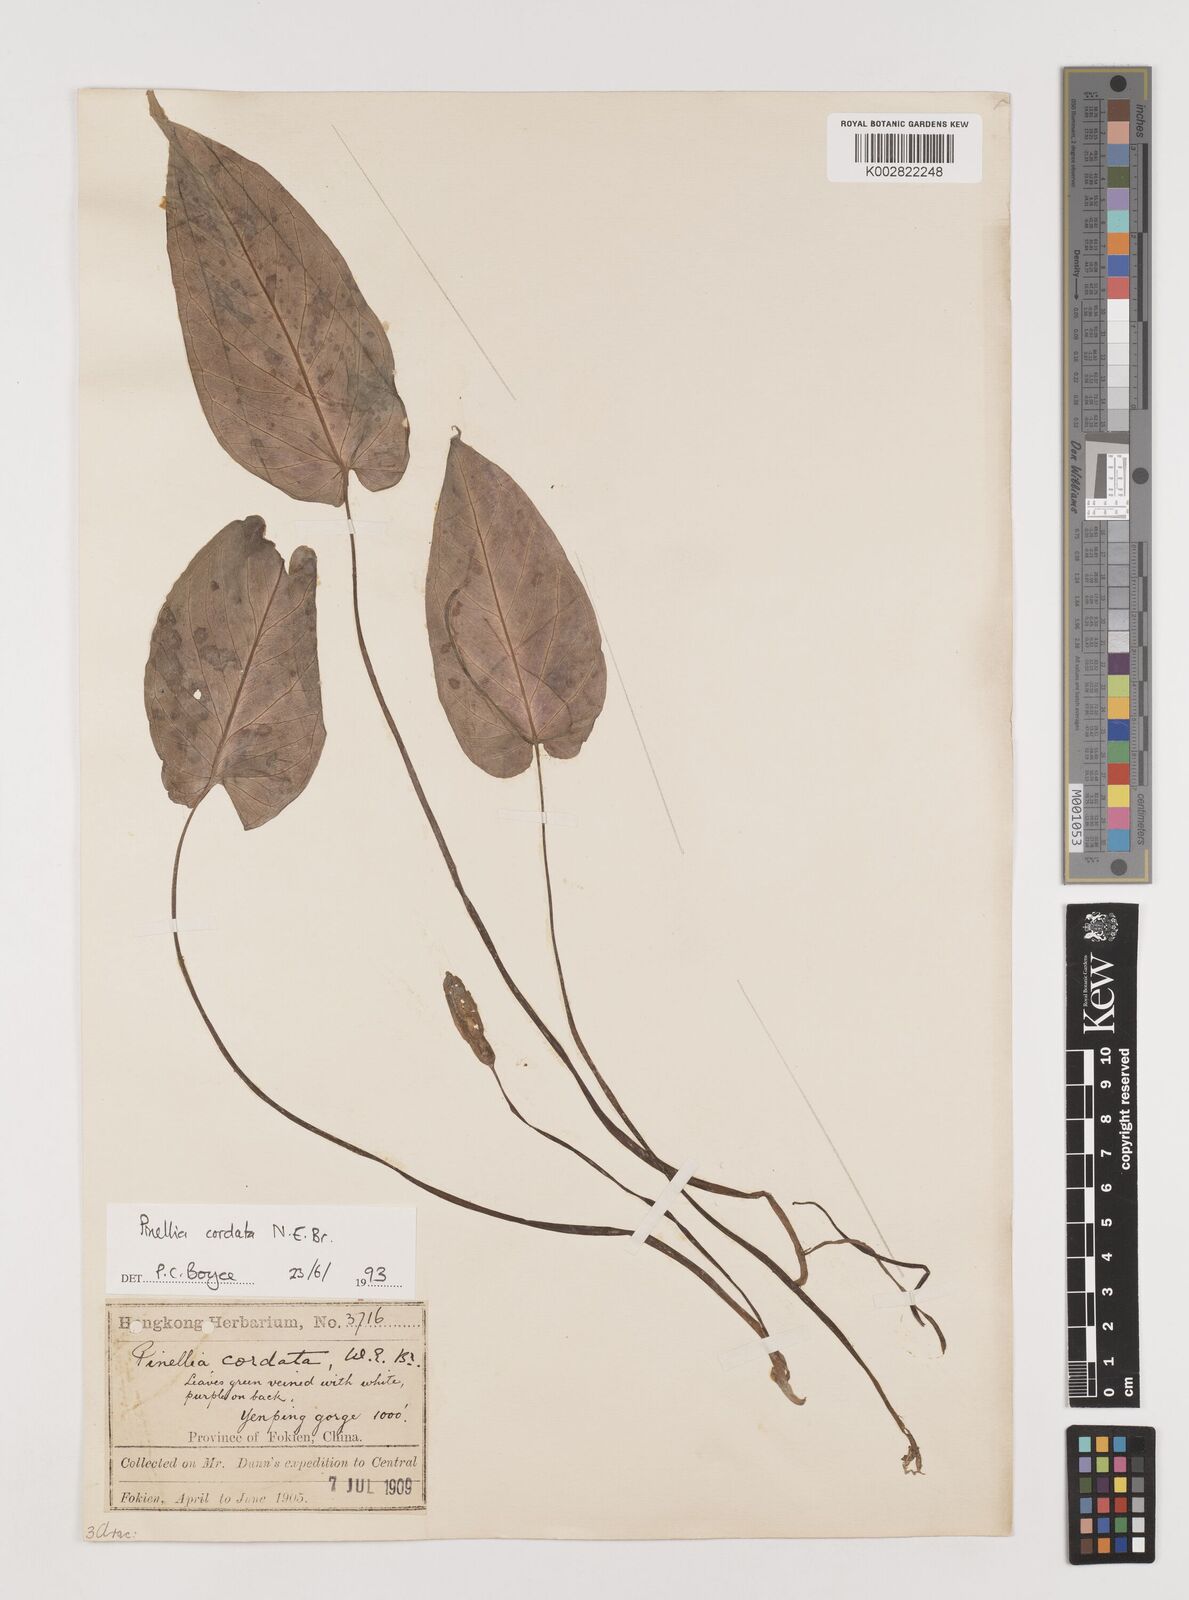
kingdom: Plantae
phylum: Tracheophyta
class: Liliopsida
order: Alismatales
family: Araceae
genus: Pinellia
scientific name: Pinellia cordata
